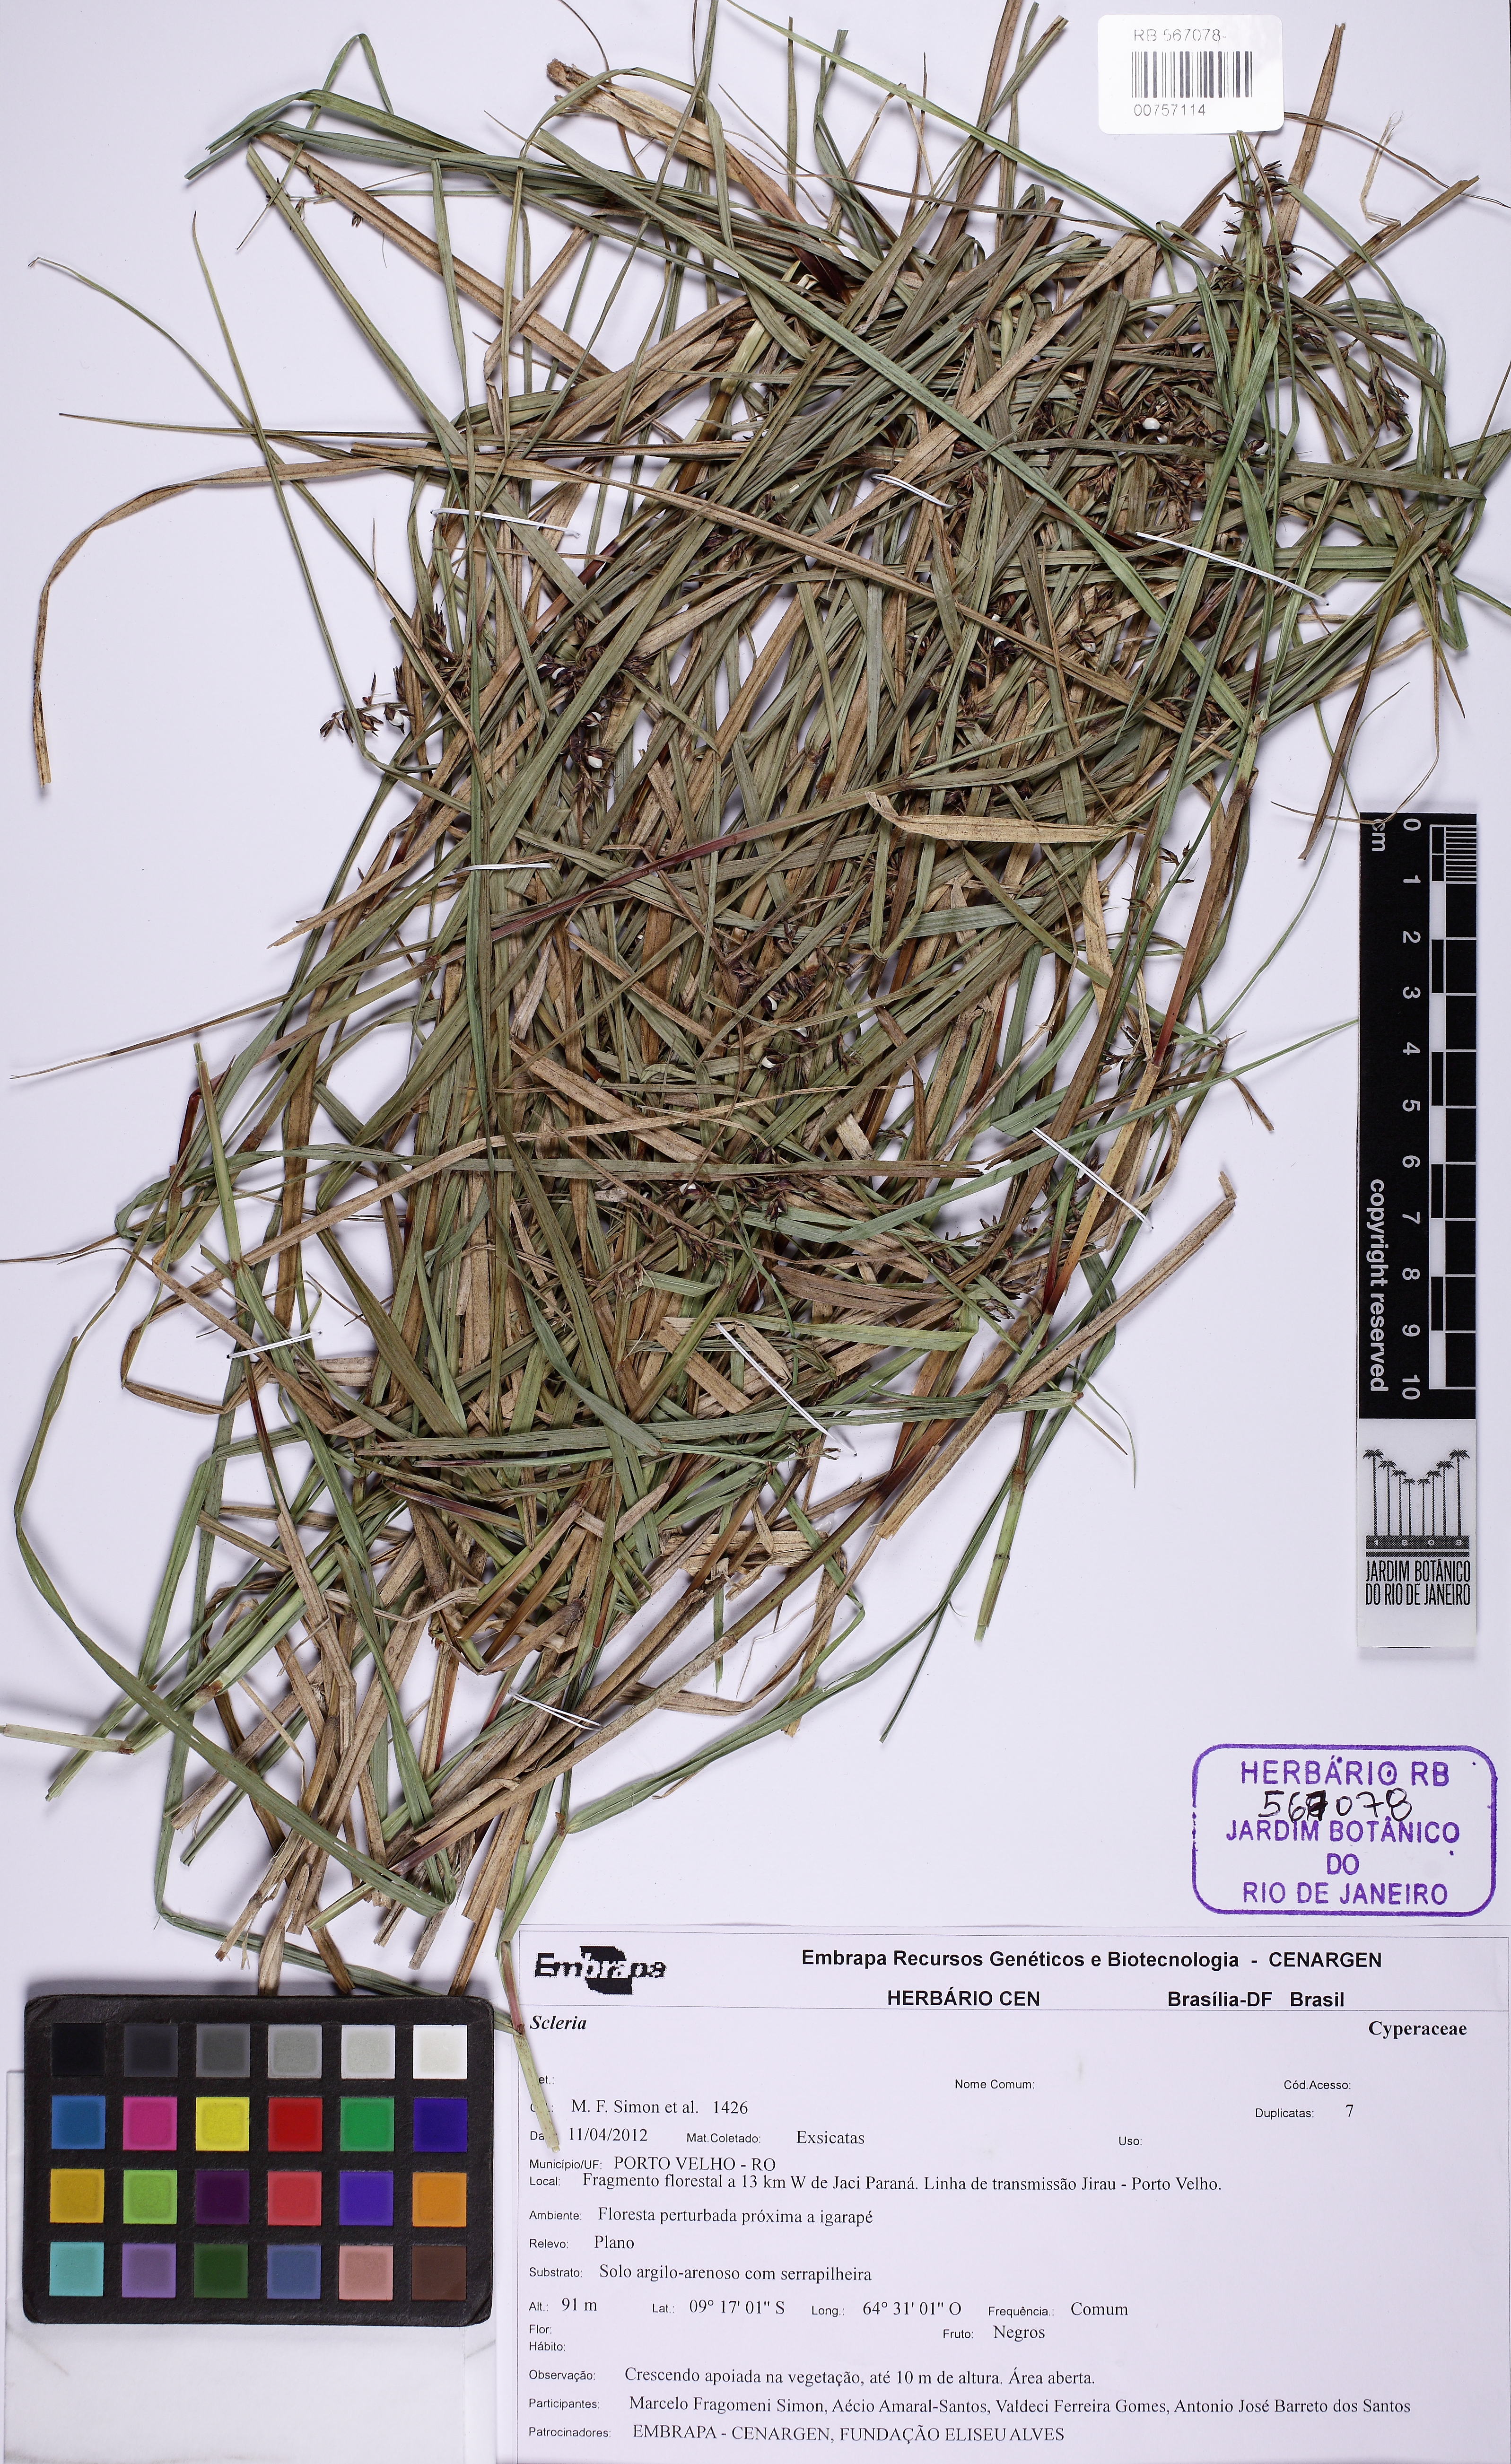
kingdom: Plantae
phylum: Tracheophyta
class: Liliopsida
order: Poales
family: Cyperaceae
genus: Scleria
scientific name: Scleria secans
